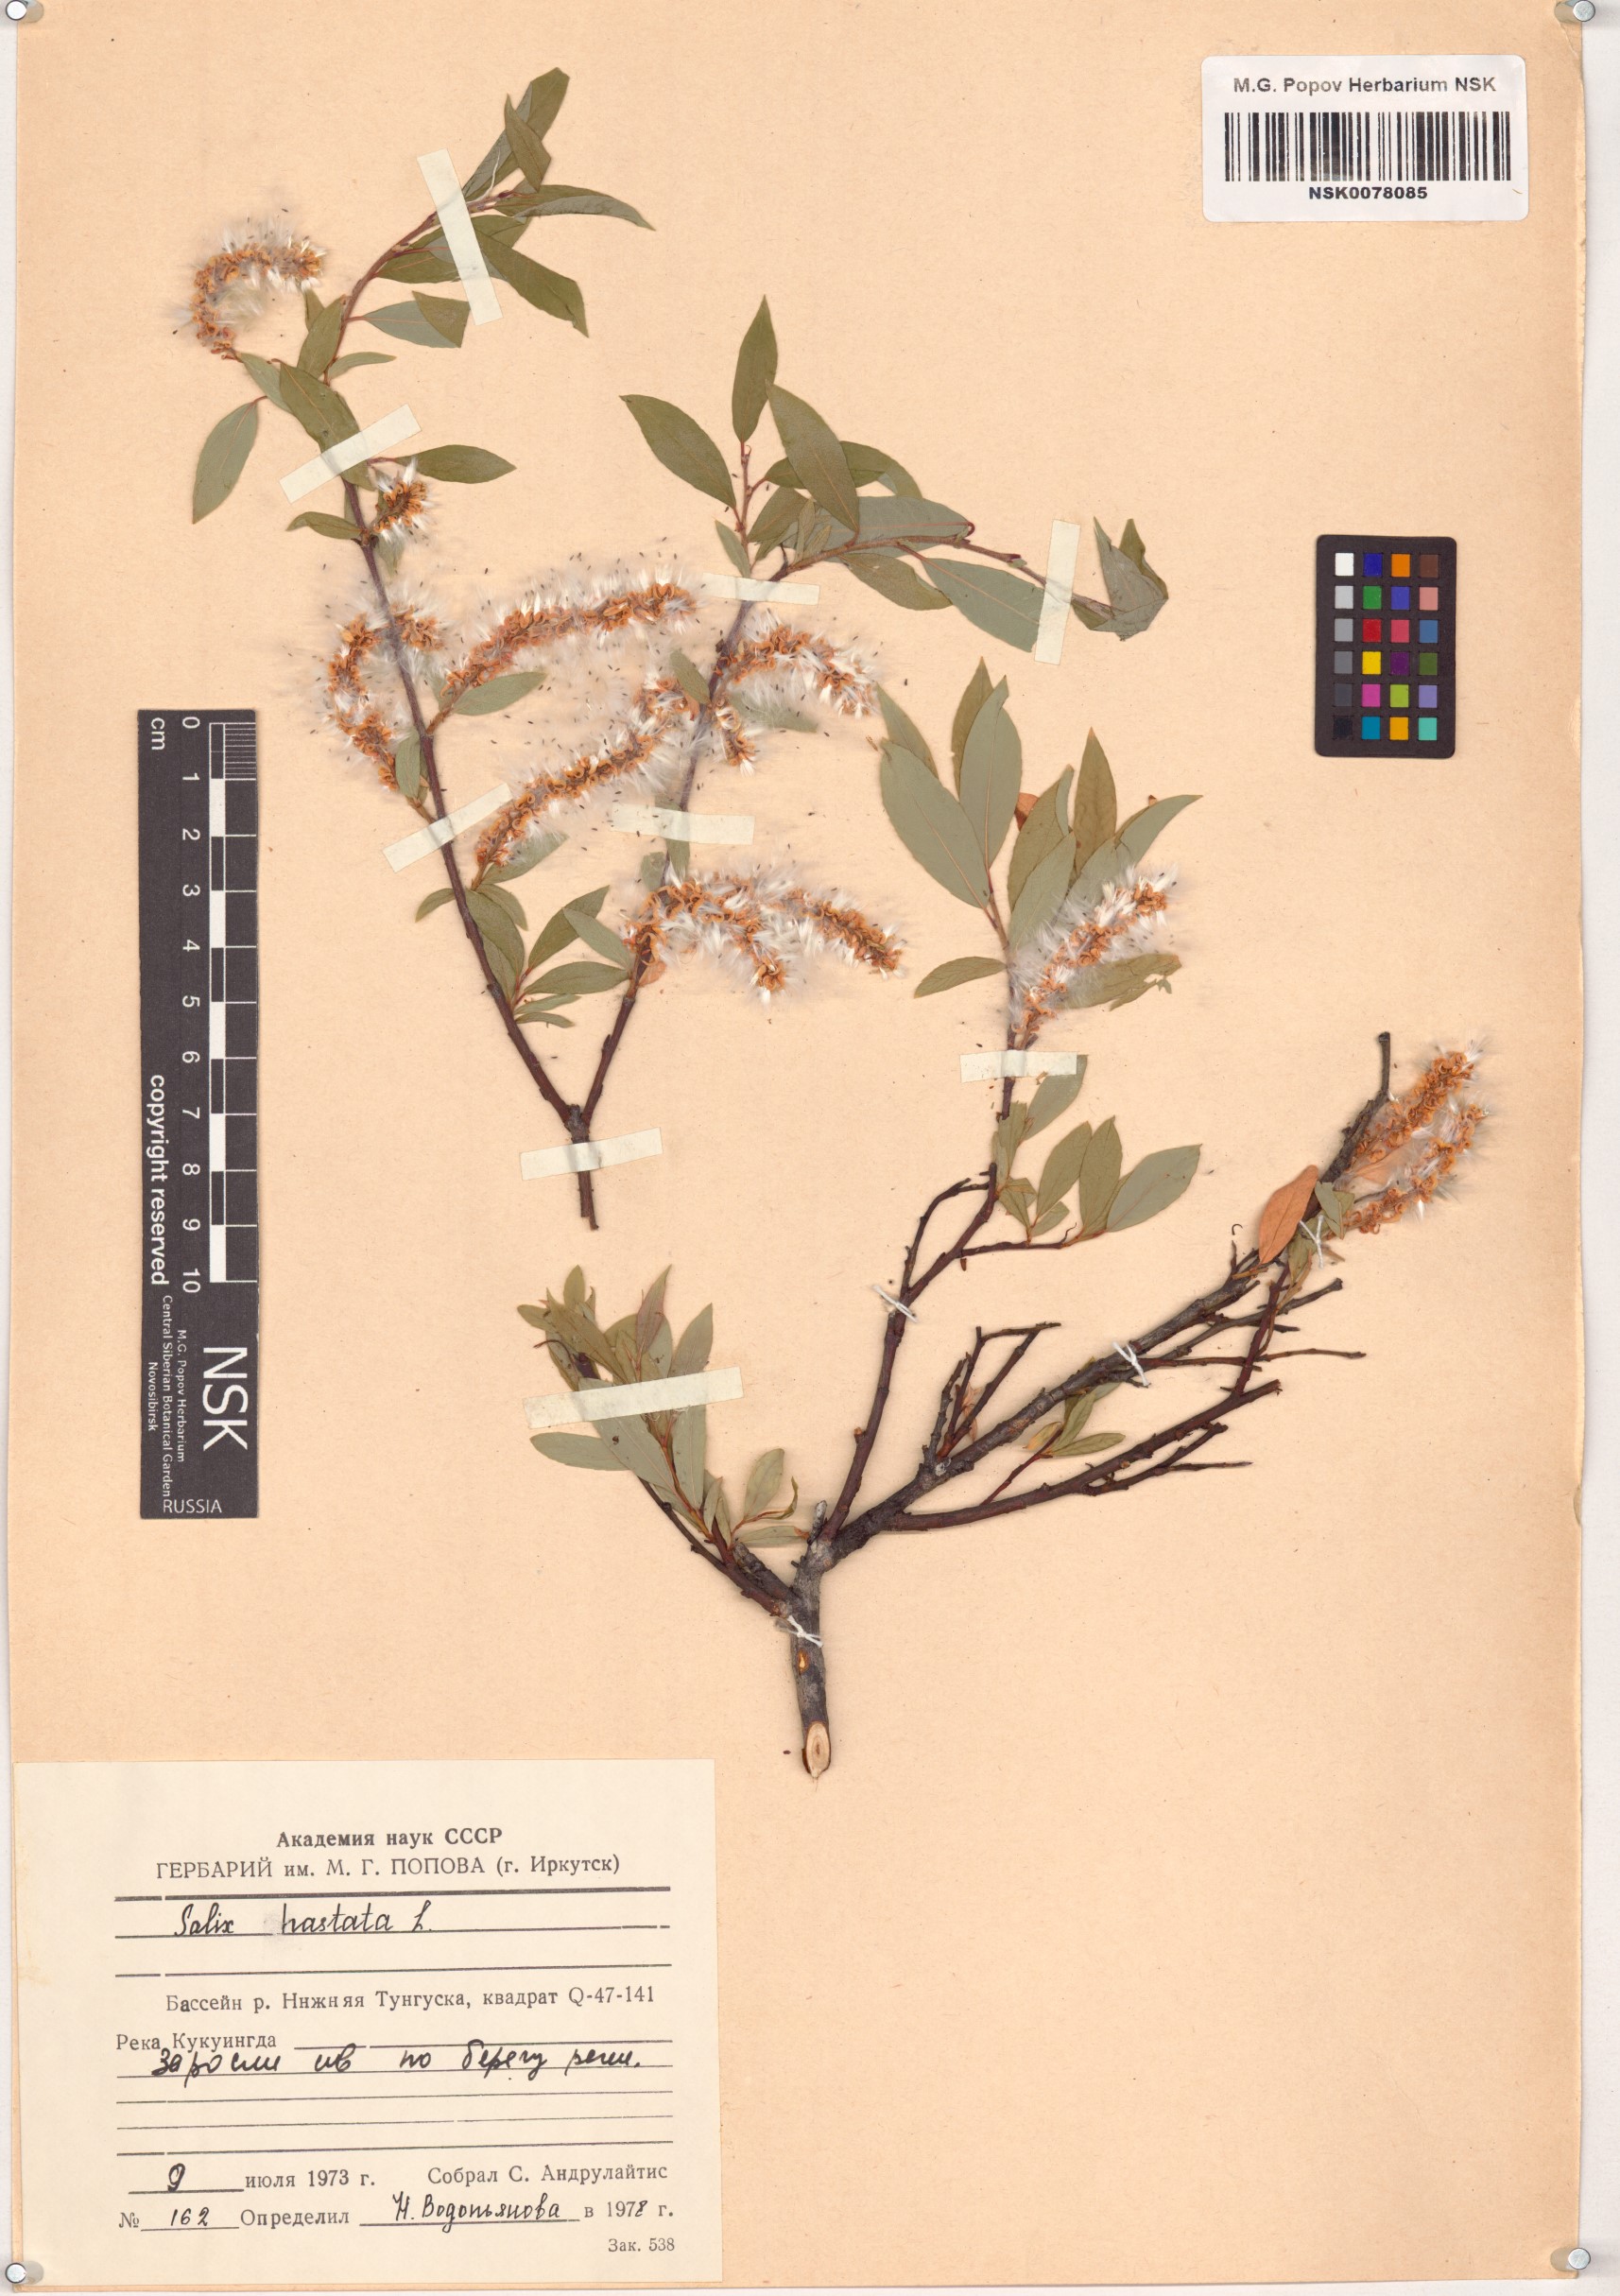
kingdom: Plantae
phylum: Tracheophyta
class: Magnoliopsida
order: Malpighiales
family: Salicaceae
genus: Salix
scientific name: Salix hastata
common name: Halberd willow
